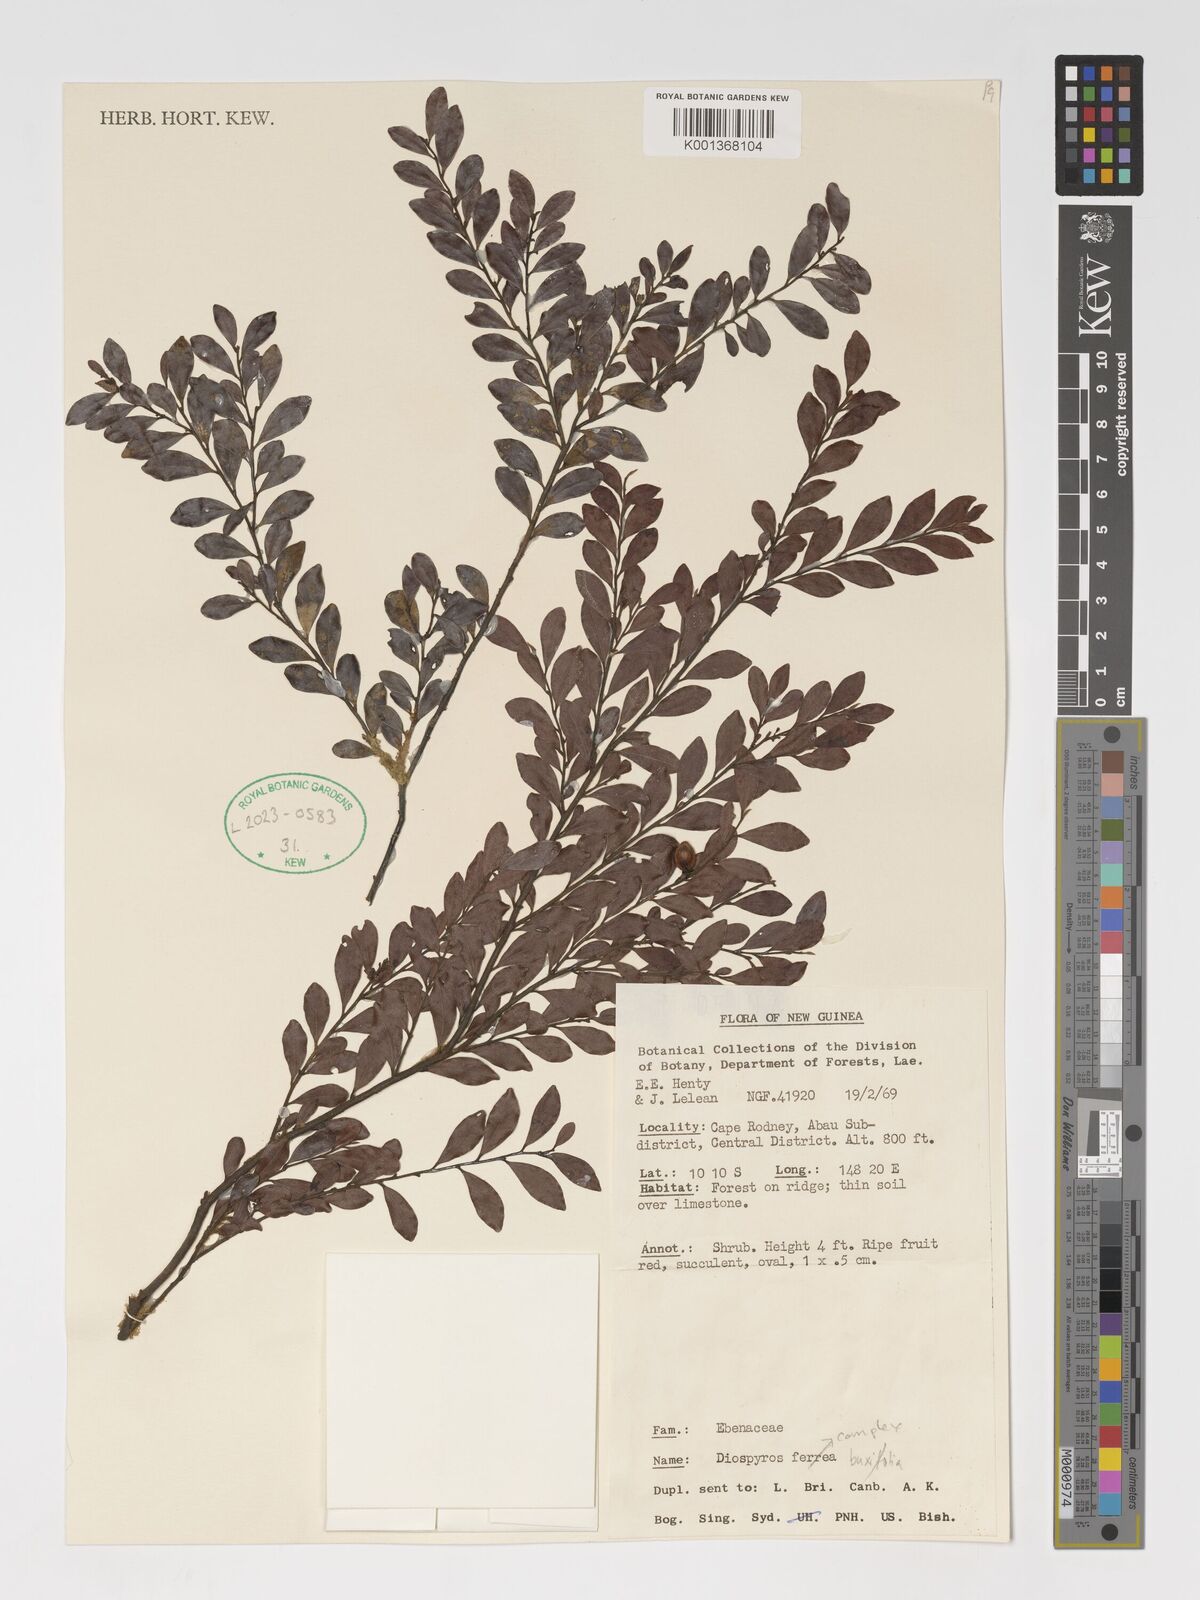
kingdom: Plantae
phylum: Tracheophyta
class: Magnoliopsida
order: Ericales
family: Ebenaceae
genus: Diospyros
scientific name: Diospyros
